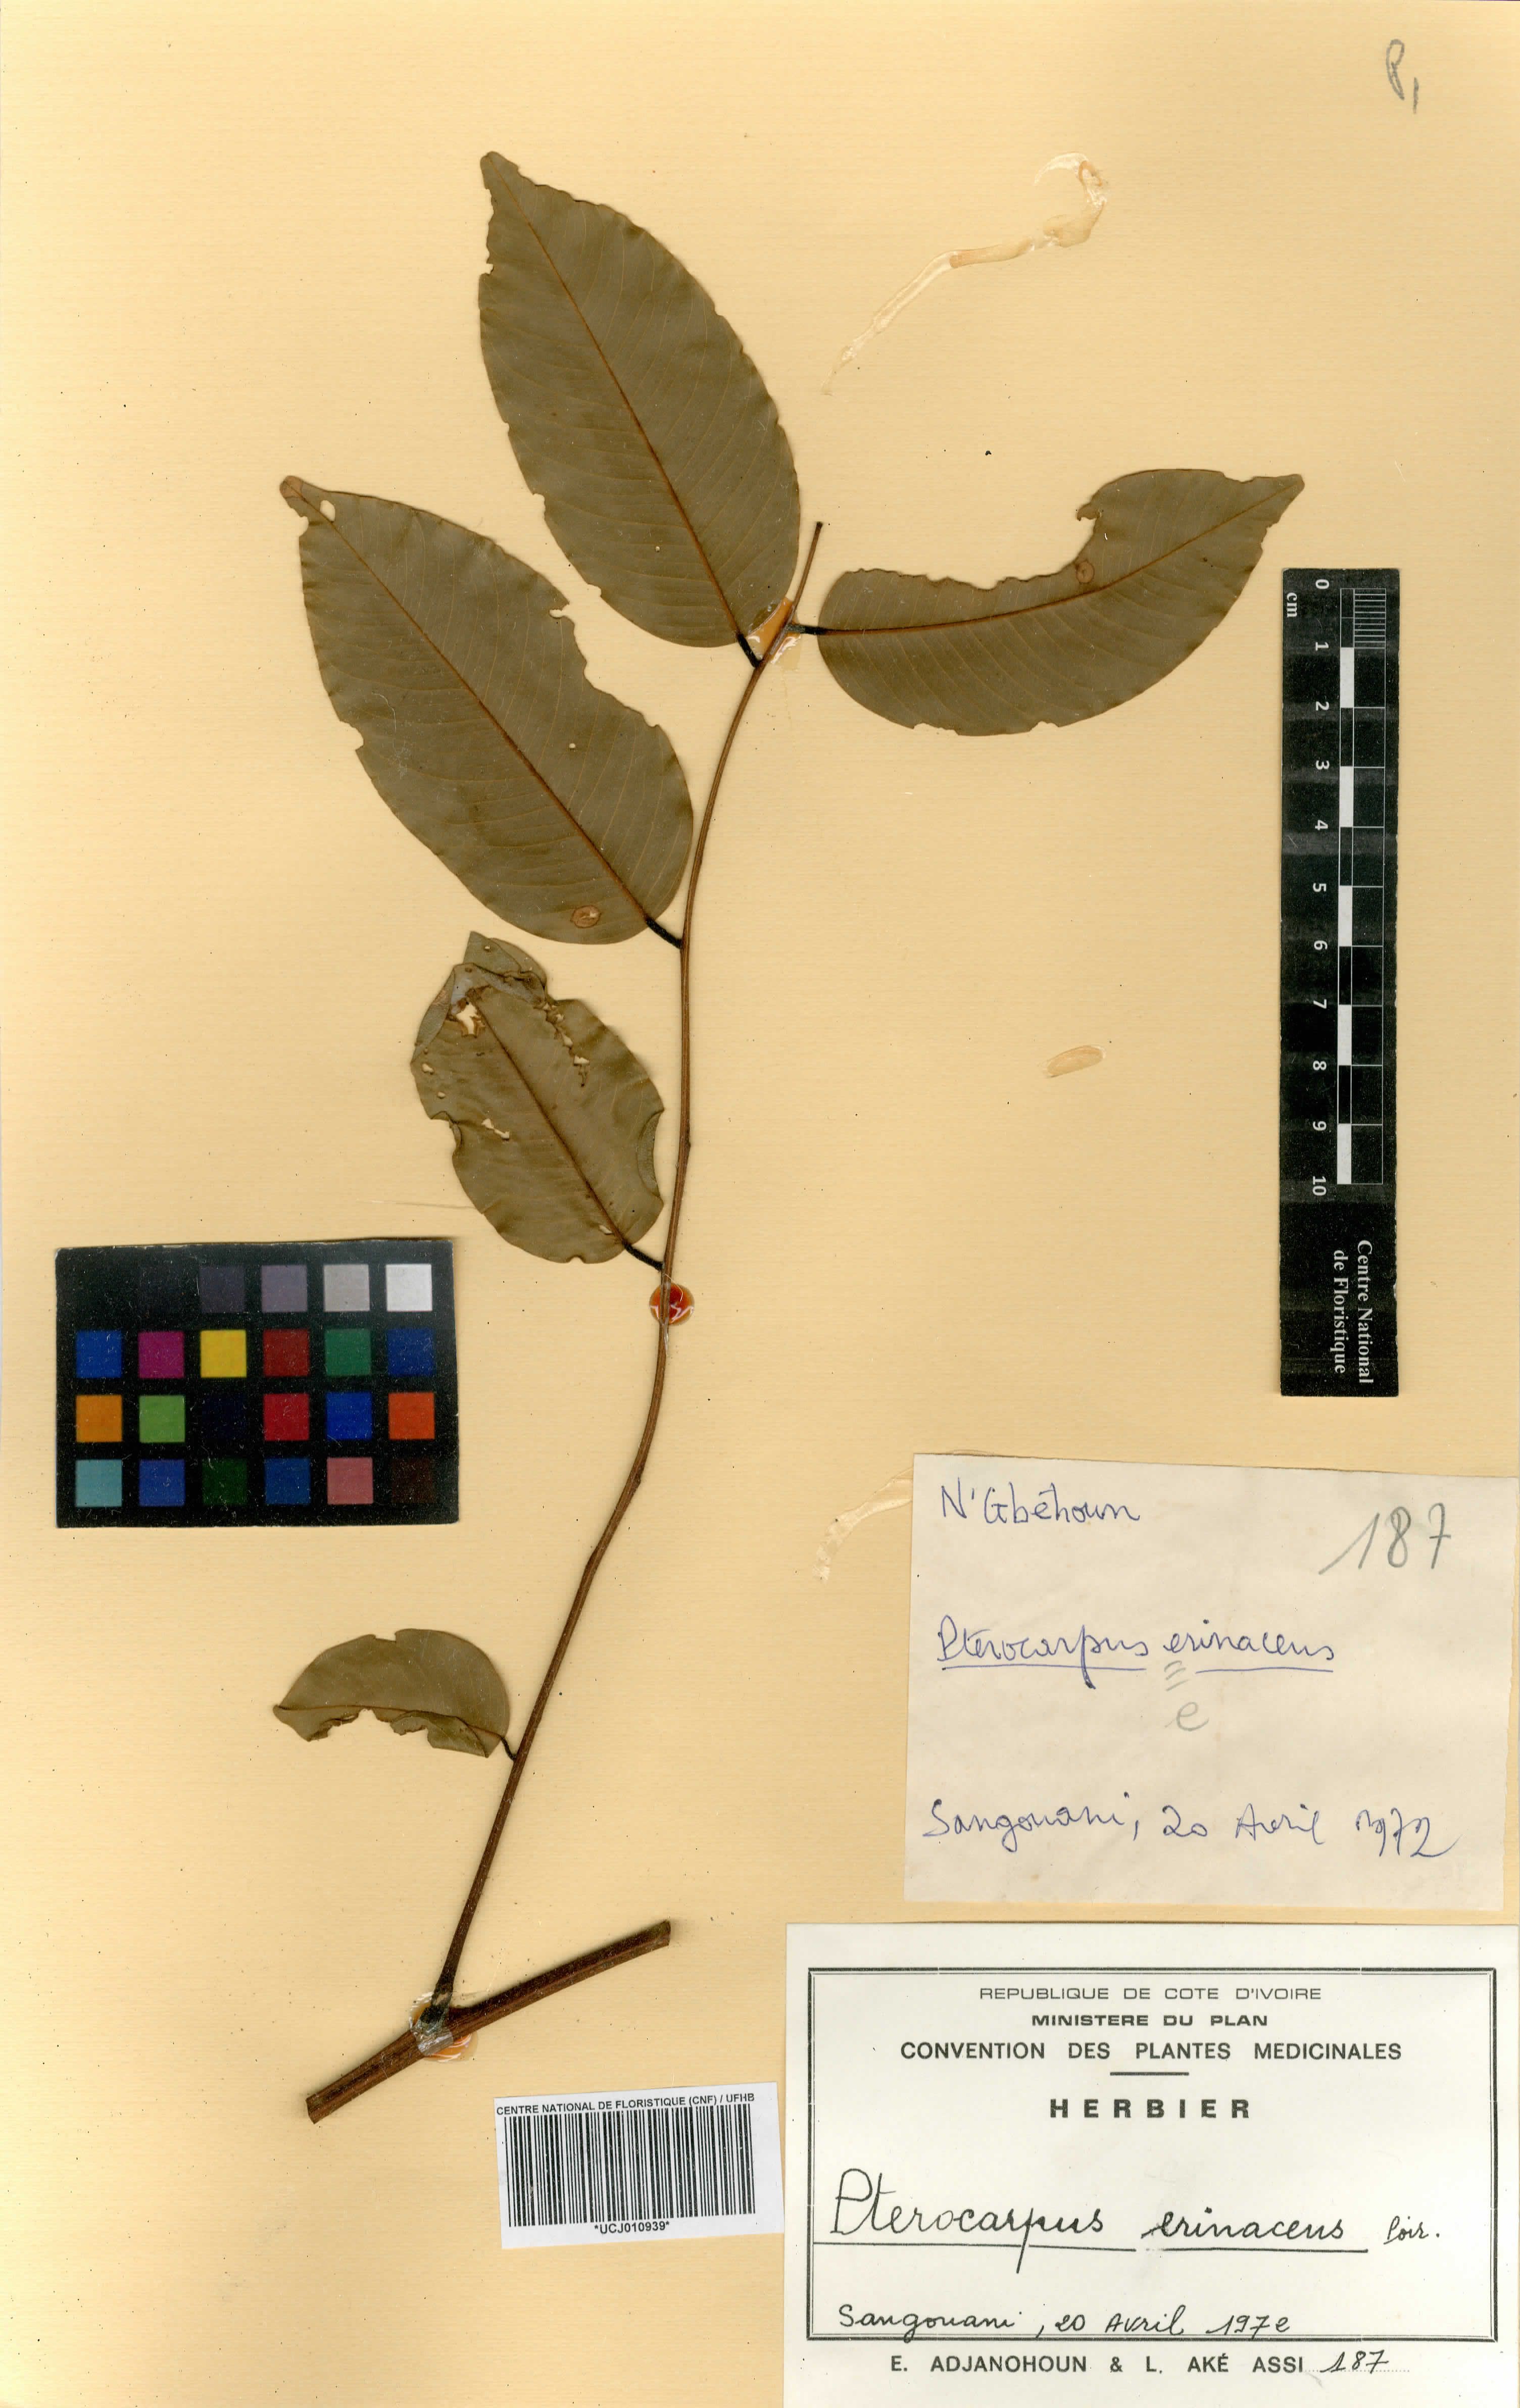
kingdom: Plantae
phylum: Tracheophyta
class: Magnoliopsida
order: Fabales
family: Fabaceae
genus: Pterocarpus
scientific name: Pterocarpus erinaceus
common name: African rosewood
